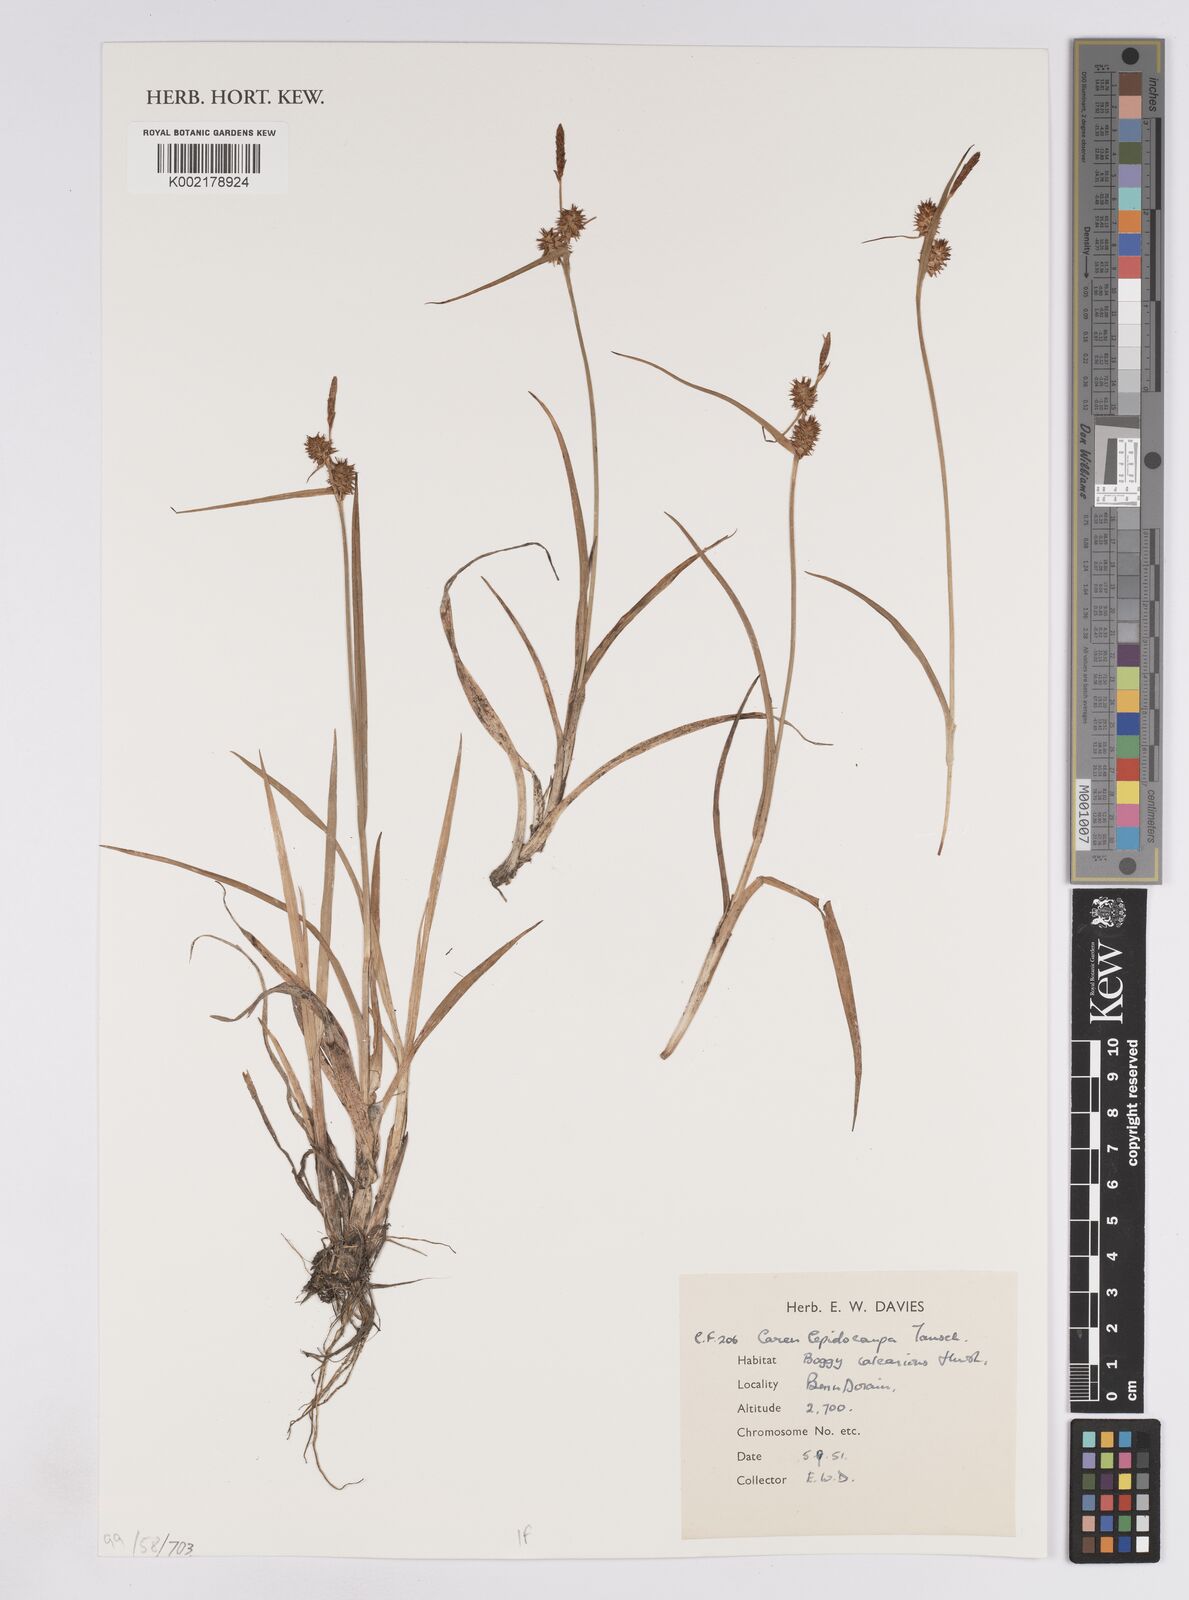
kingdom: Plantae
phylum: Tracheophyta
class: Liliopsida
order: Poales
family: Cyperaceae
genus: Carex
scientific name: Carex lepidocarpa
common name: Long-stalked yellow-sedge
